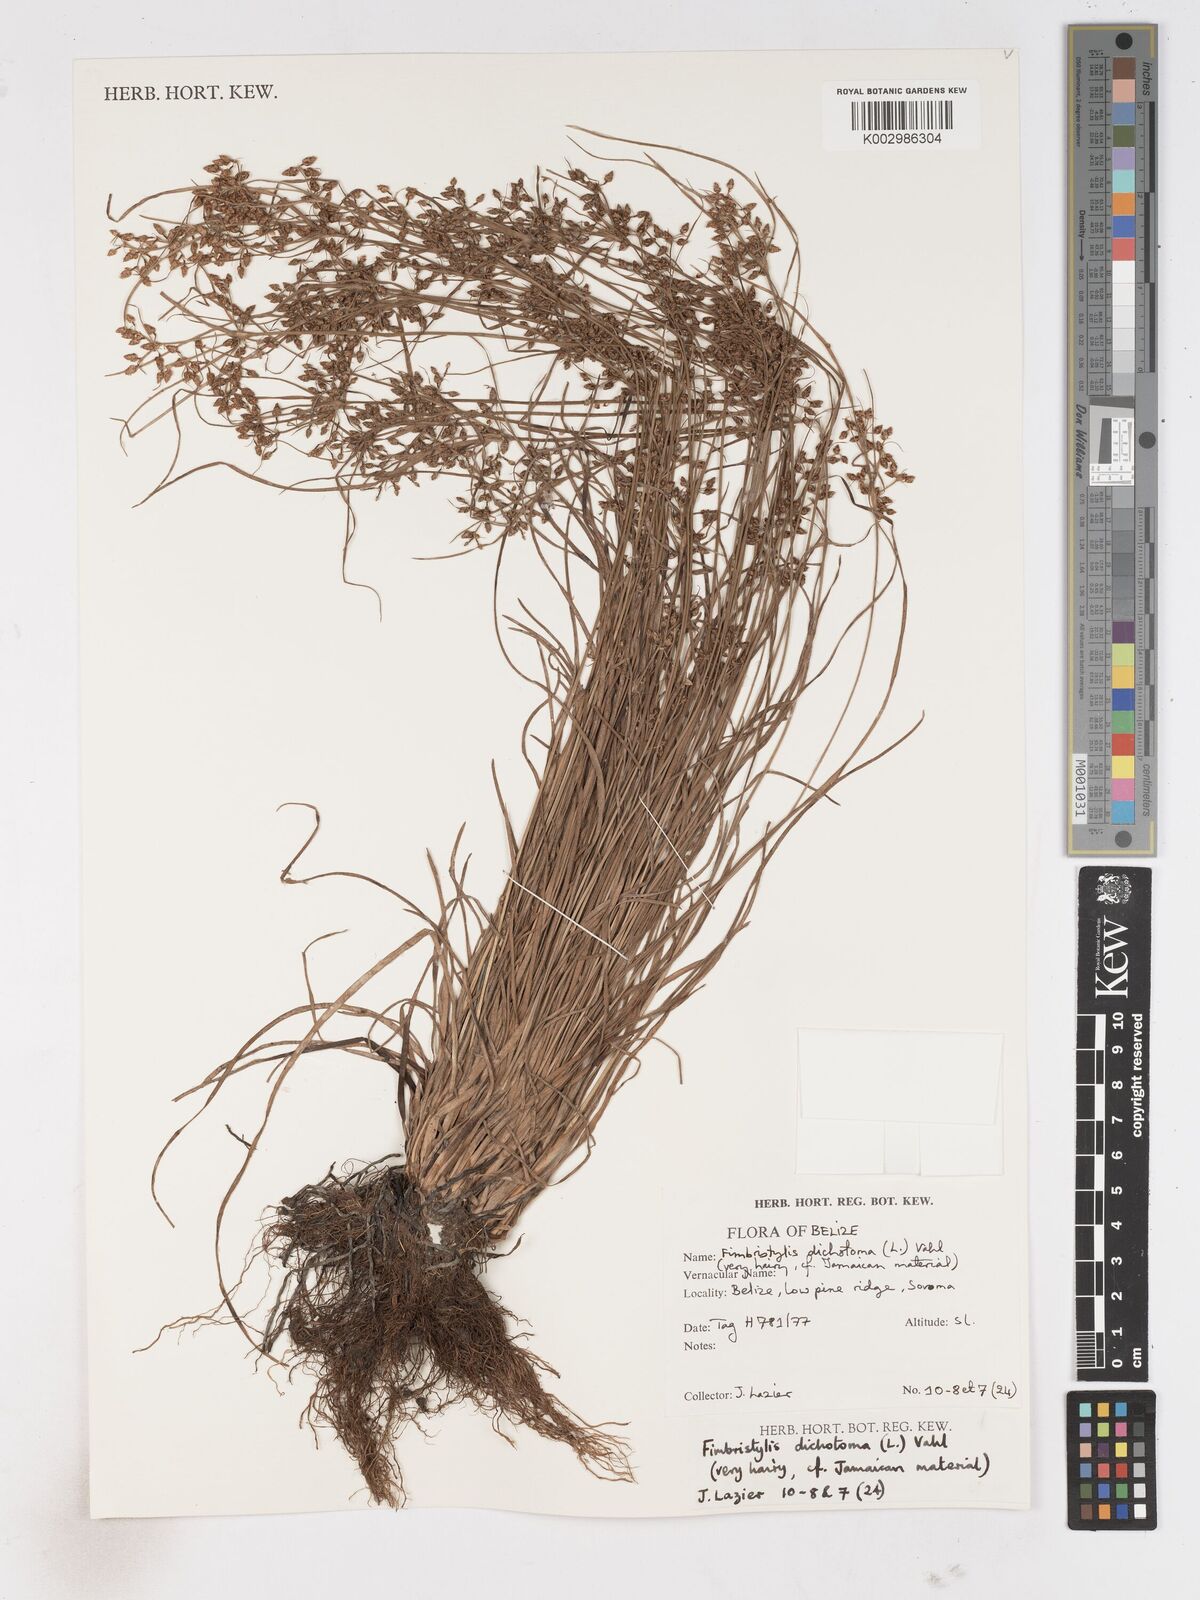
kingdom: Plantae
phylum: Tracheophyta
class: Liliopsida
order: Poales
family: Cyperaceae
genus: Fimbristylis
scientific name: Fimbristylis dichotoma
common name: Forked fimbry
